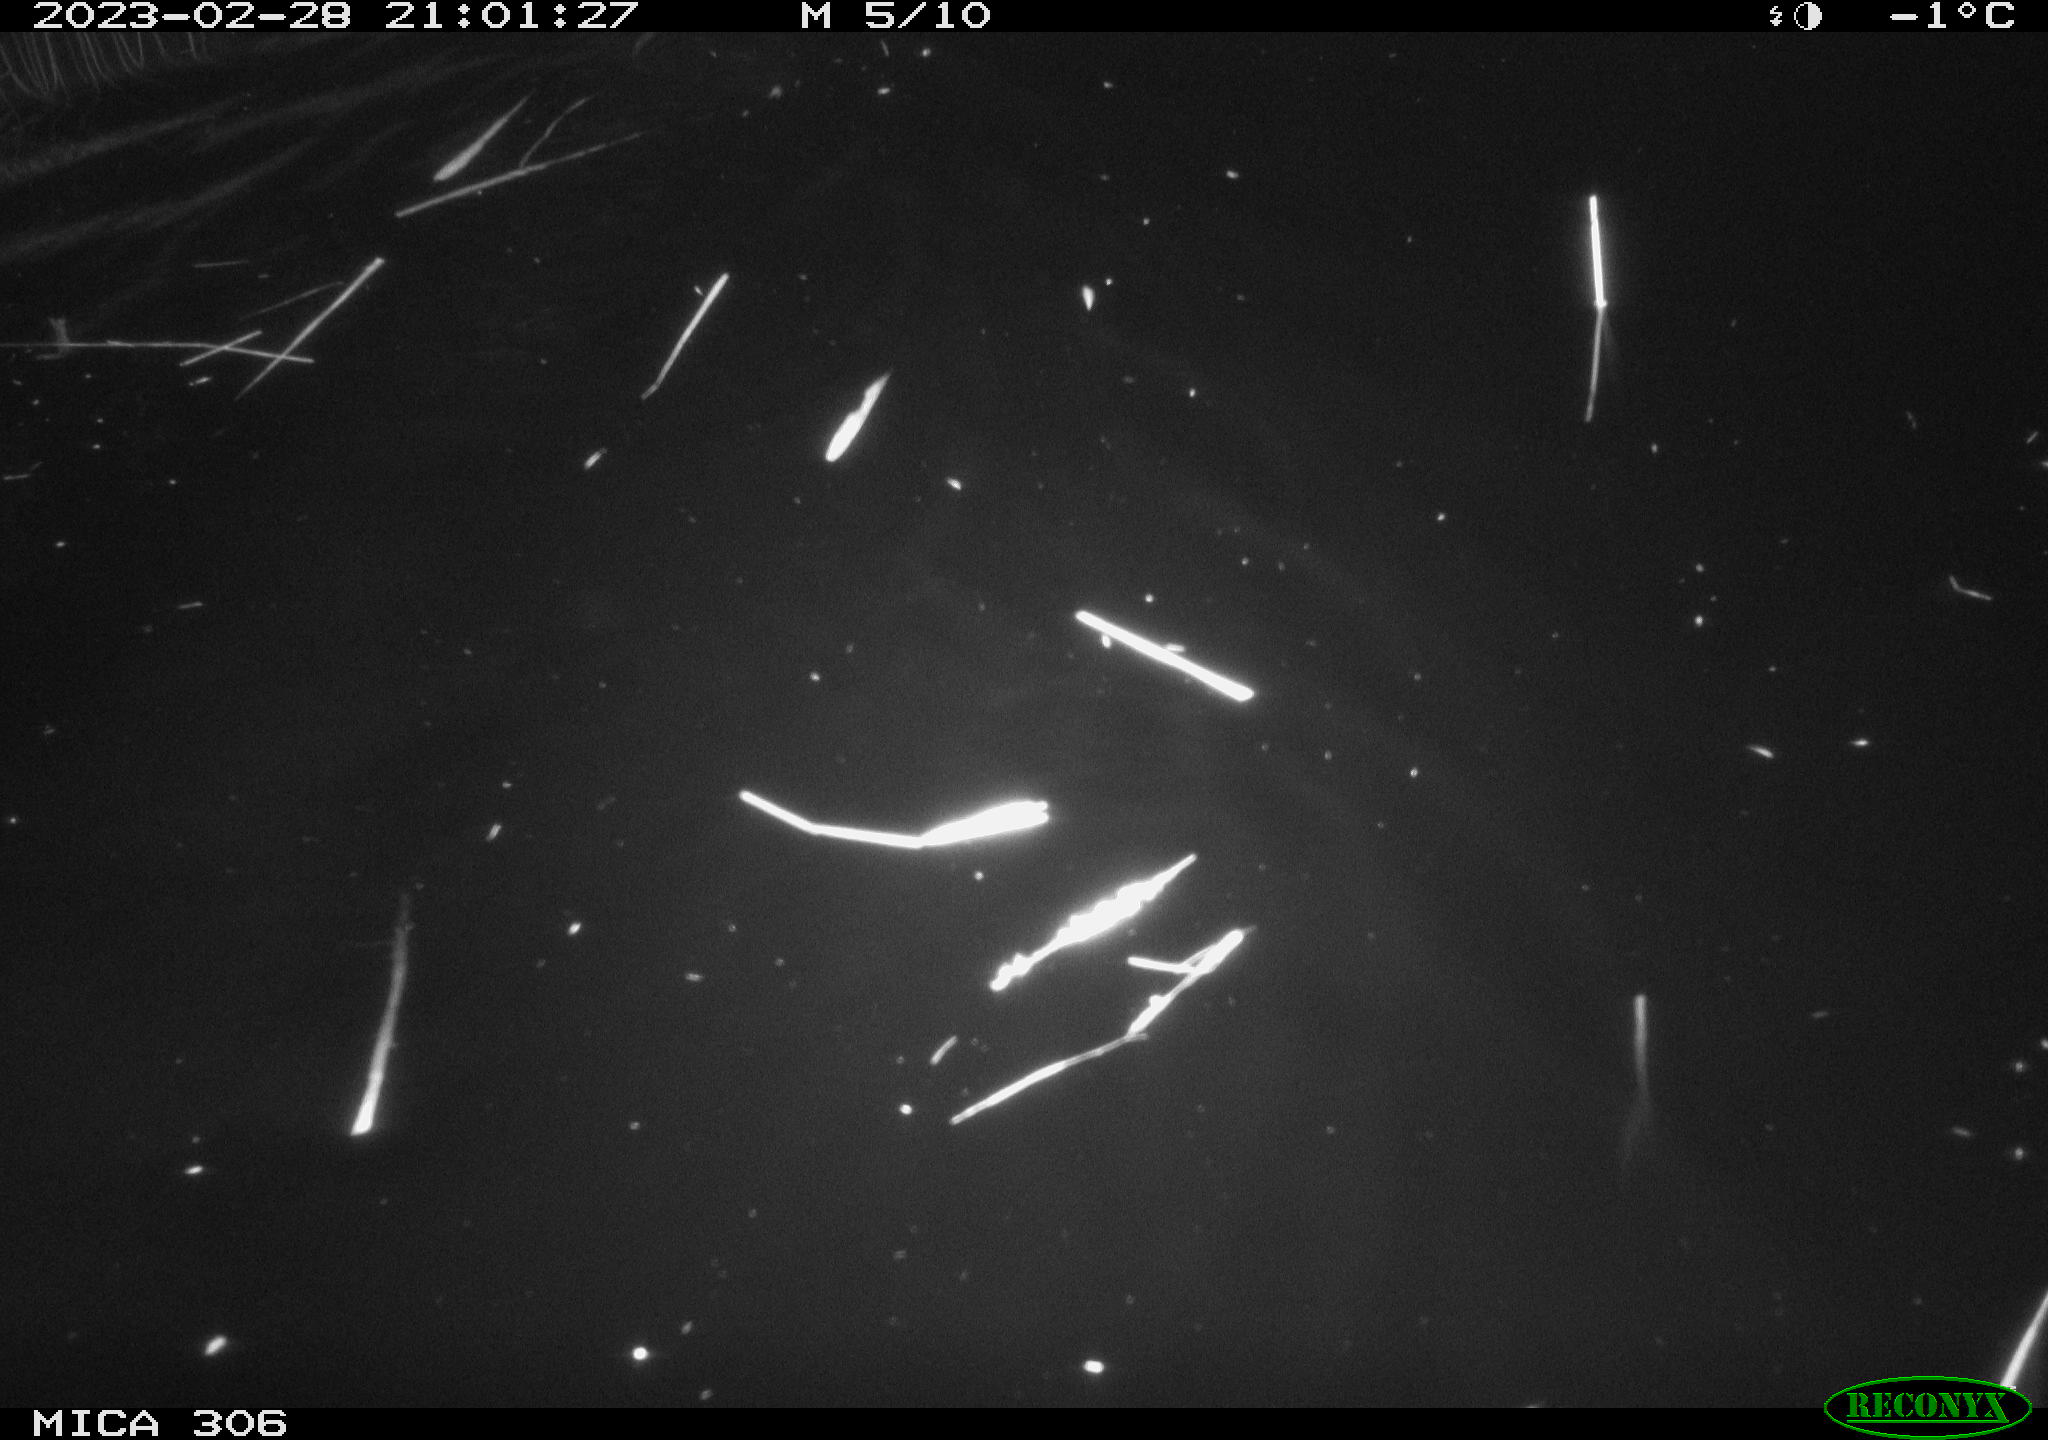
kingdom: Animalia
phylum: Chordata
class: Mammalia
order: Rodentia
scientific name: Rodentia
